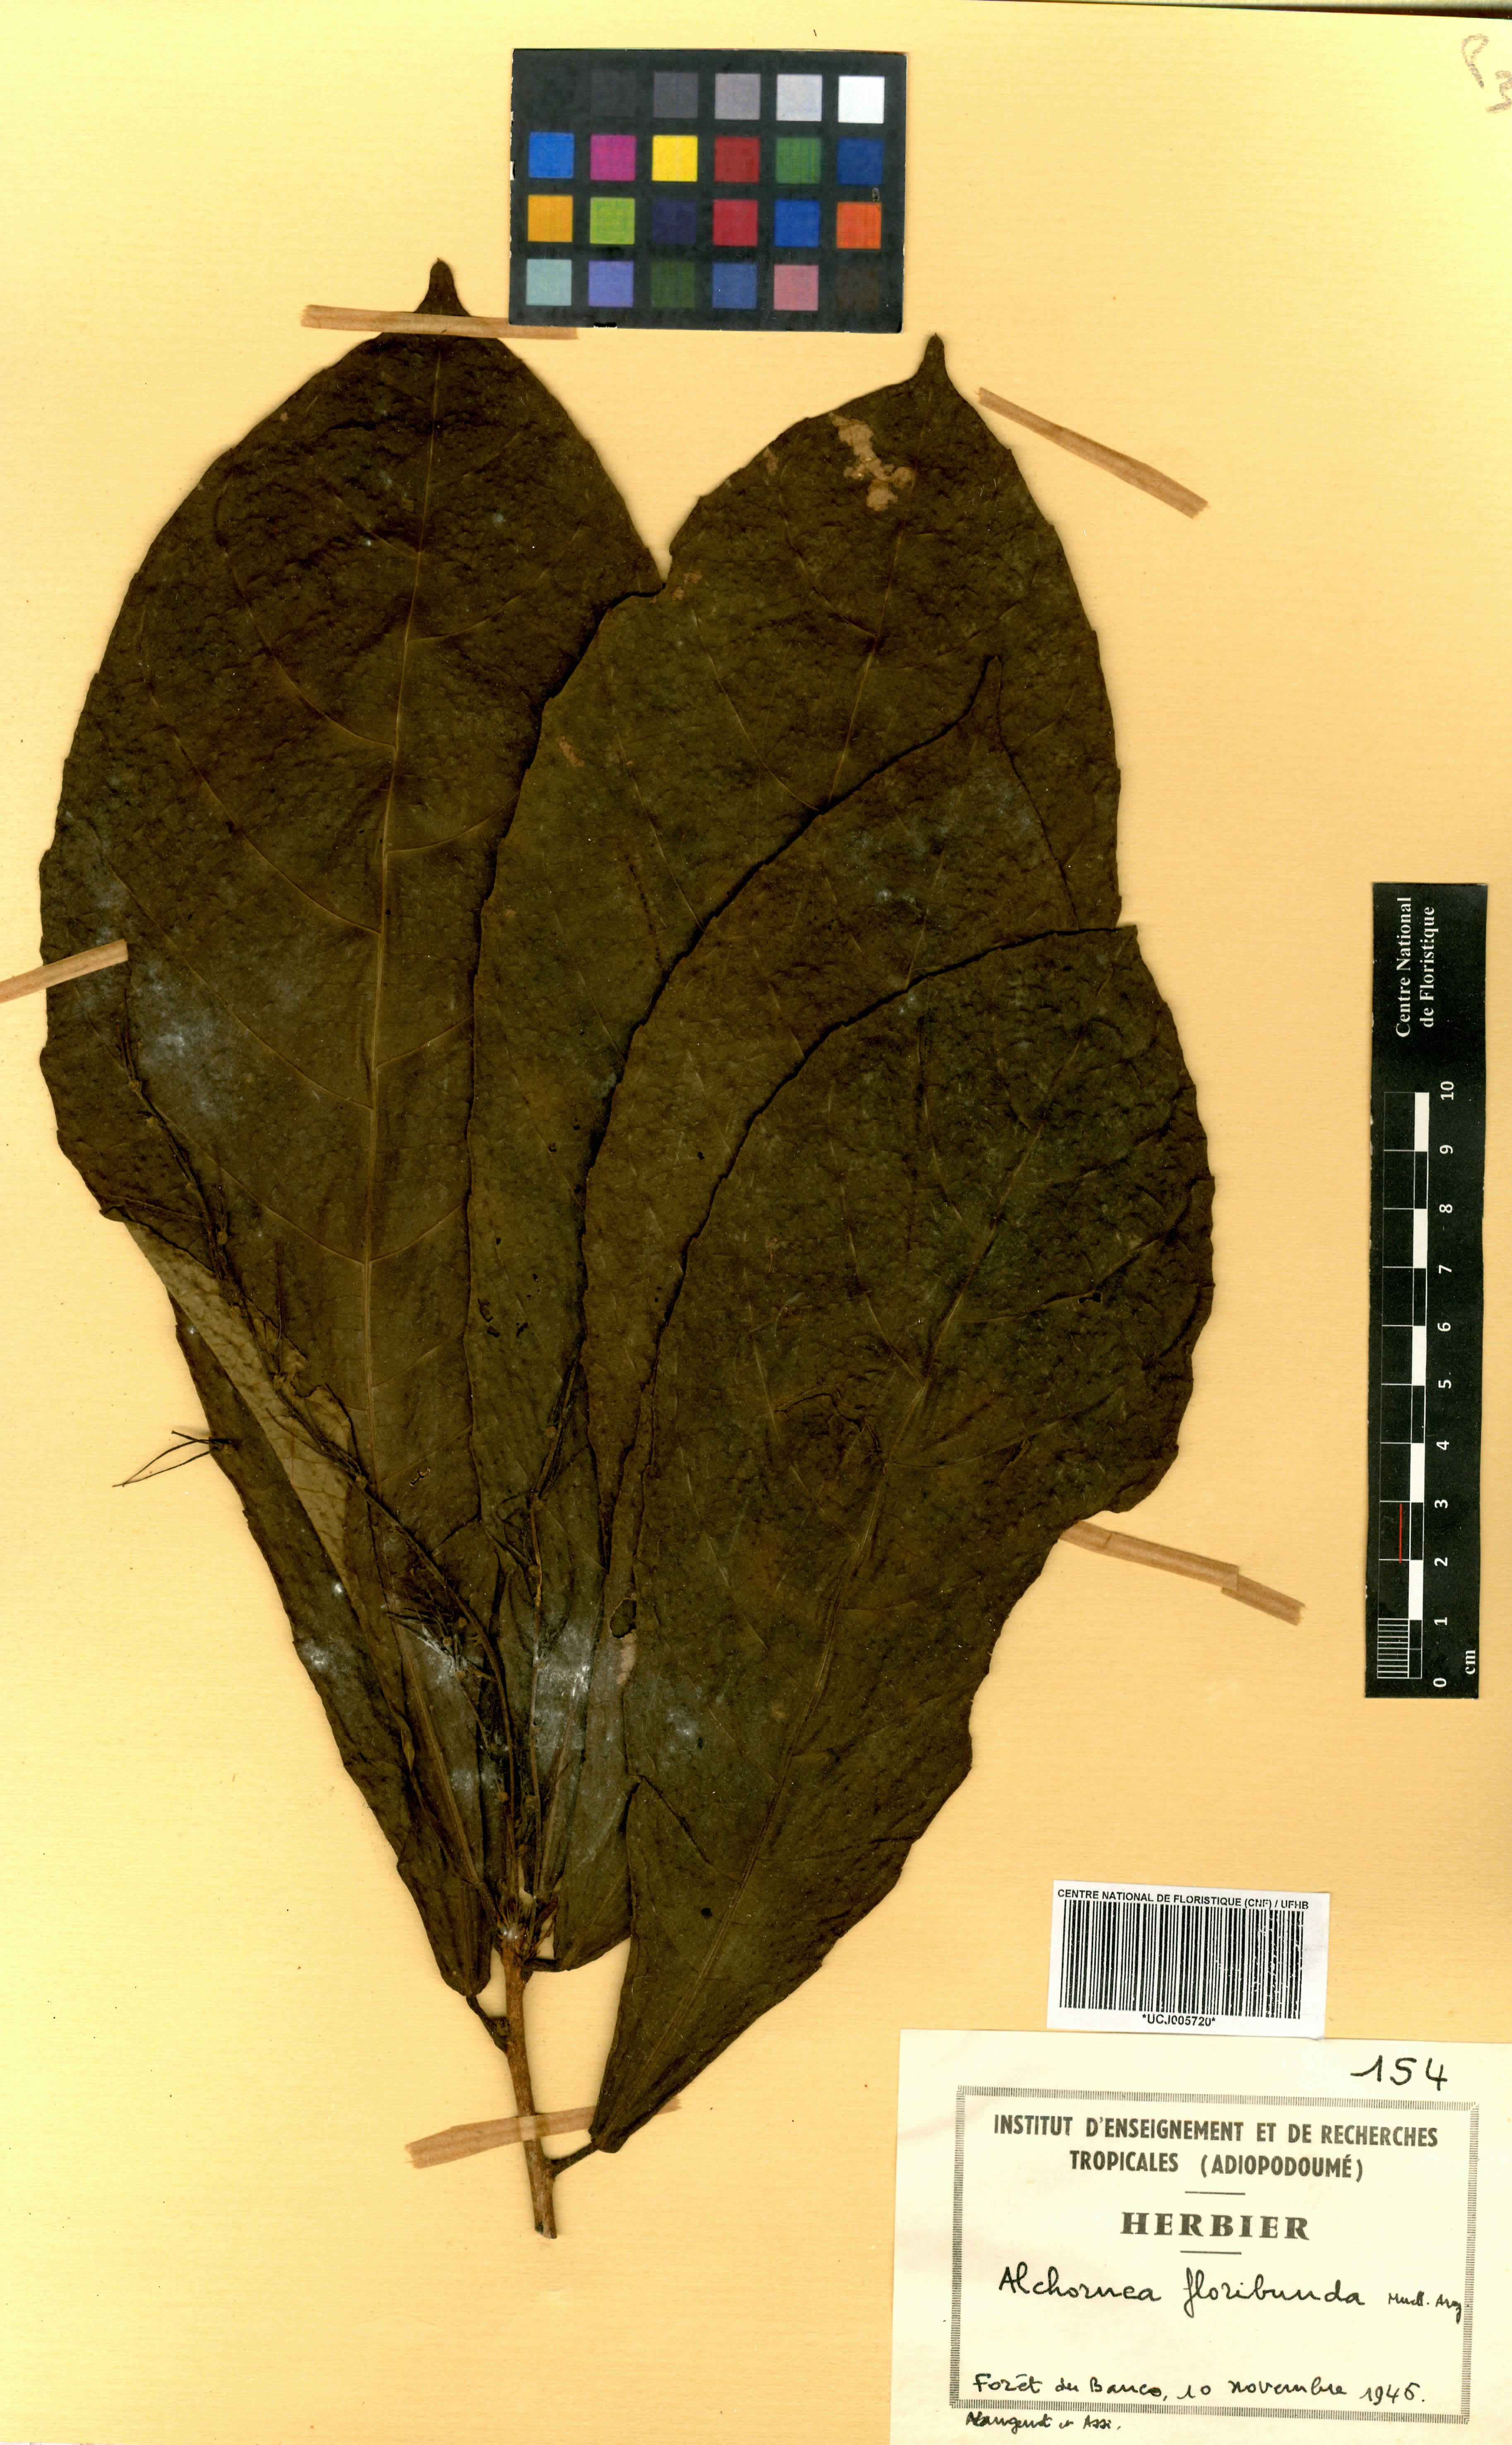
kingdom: Plantae
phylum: Tracheophyta
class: Magnoliopsida
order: Malpighiales
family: Euphorbiaceae
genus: Alchornea
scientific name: Alchornea floribunda
